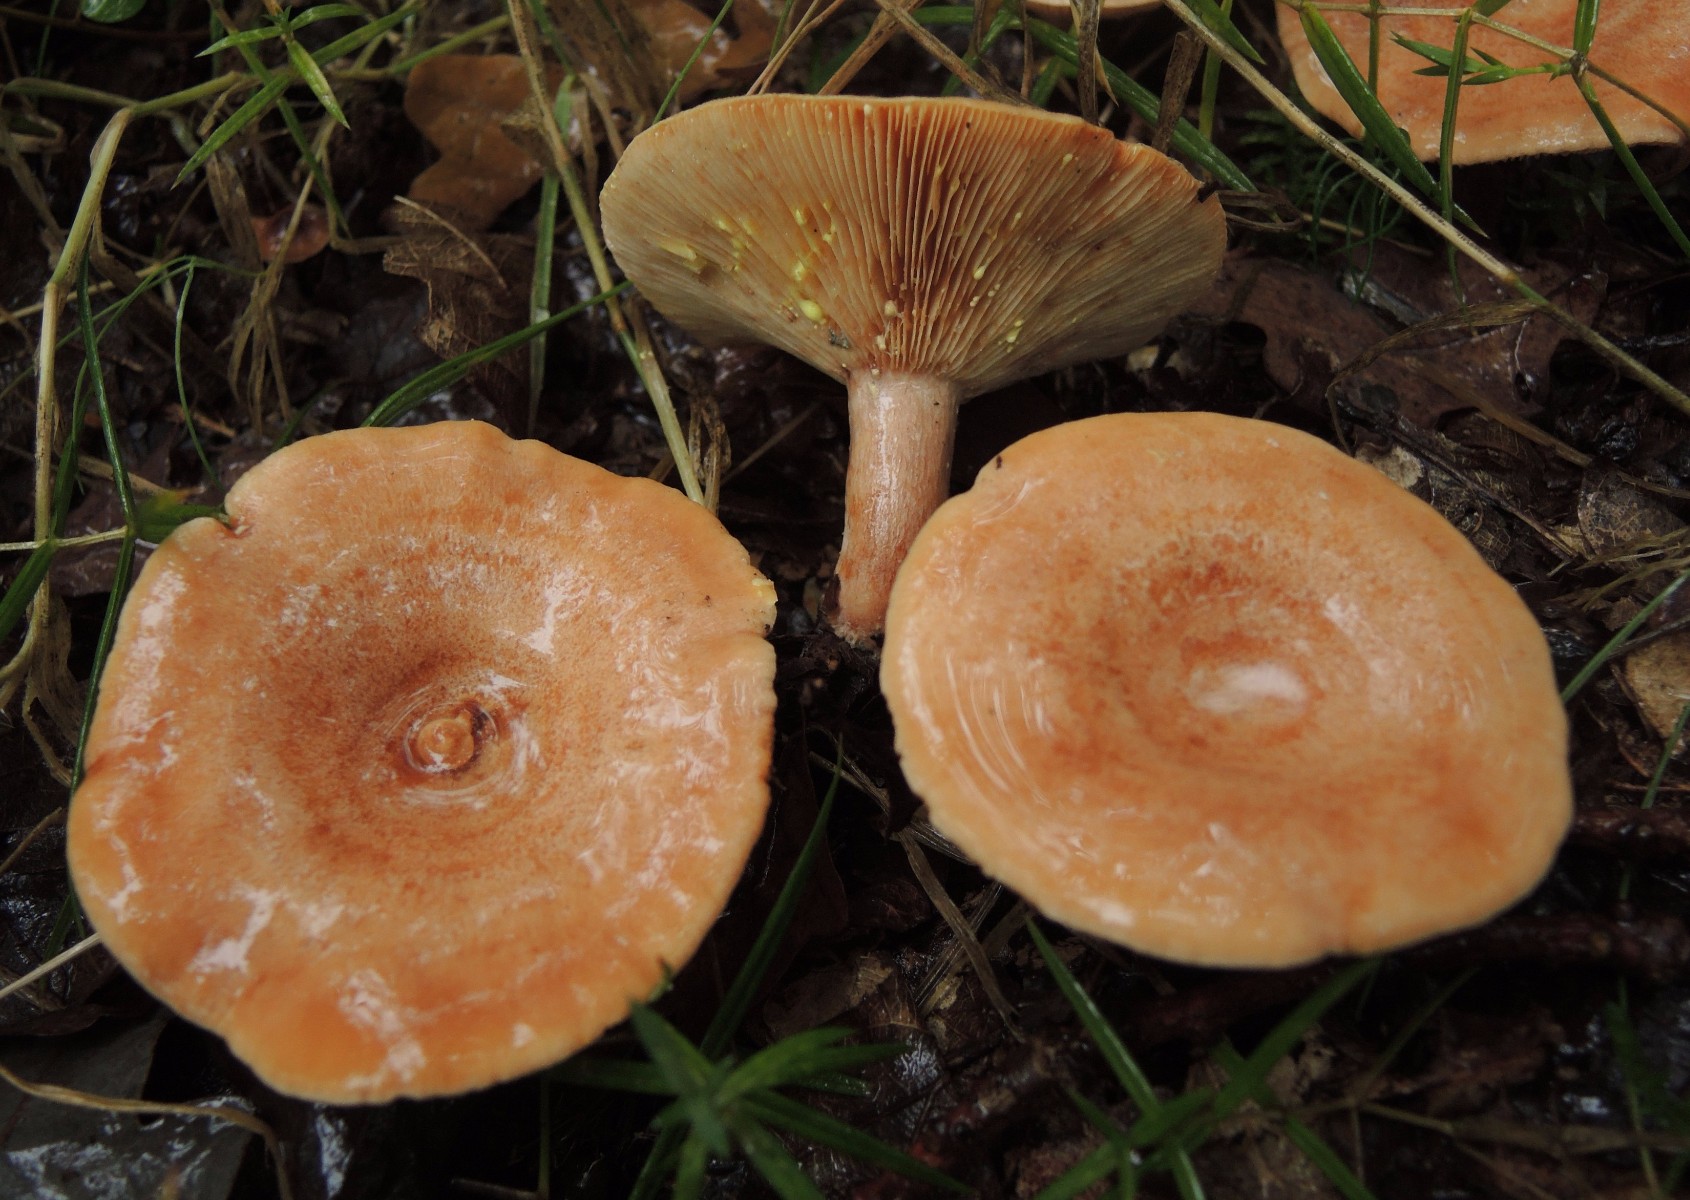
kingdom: Fungi
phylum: Basidiomycota
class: Agaricomycetes
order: Russulales
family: Russulaceae
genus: Lactarius
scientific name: Lactarius chrysorrheus
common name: svovlmælket mælkehat
